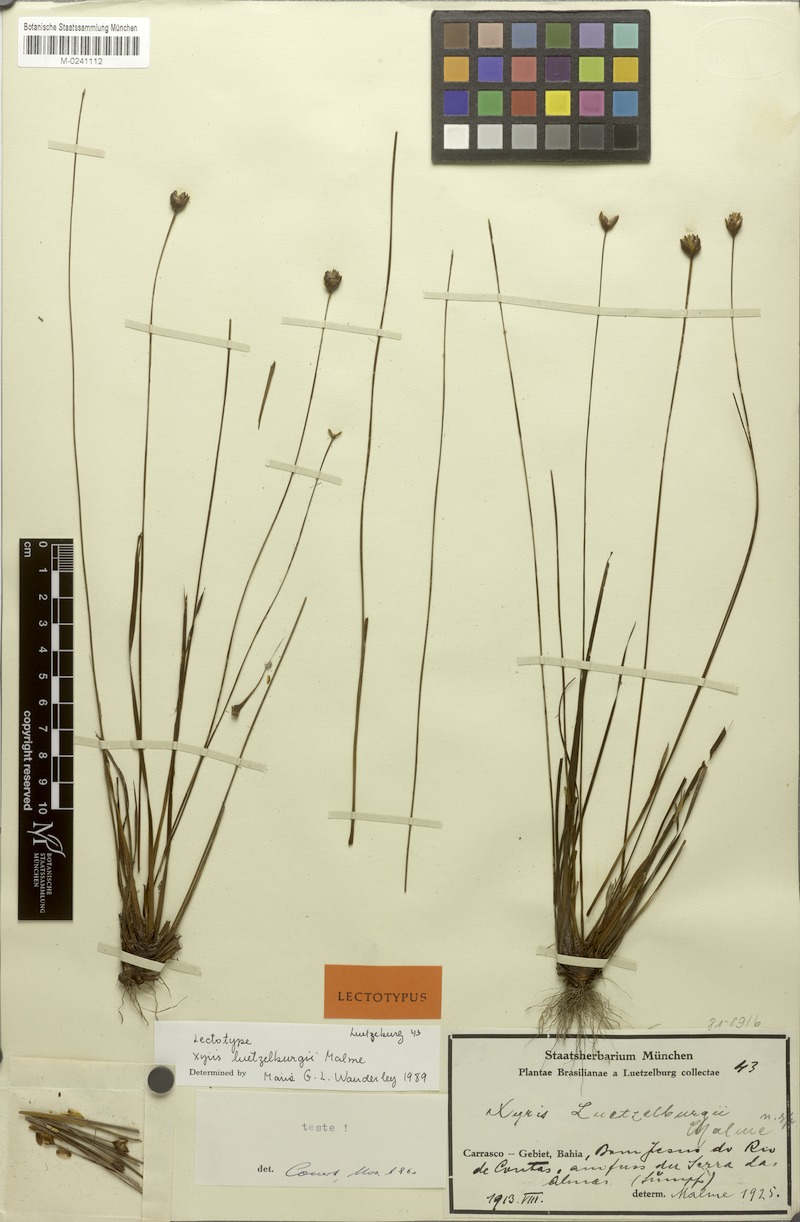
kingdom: Plantae
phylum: Tracheophyta
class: Liliopsida
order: Poales
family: Xyridaceae
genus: Xyris
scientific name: Xyris luetzelburgii
